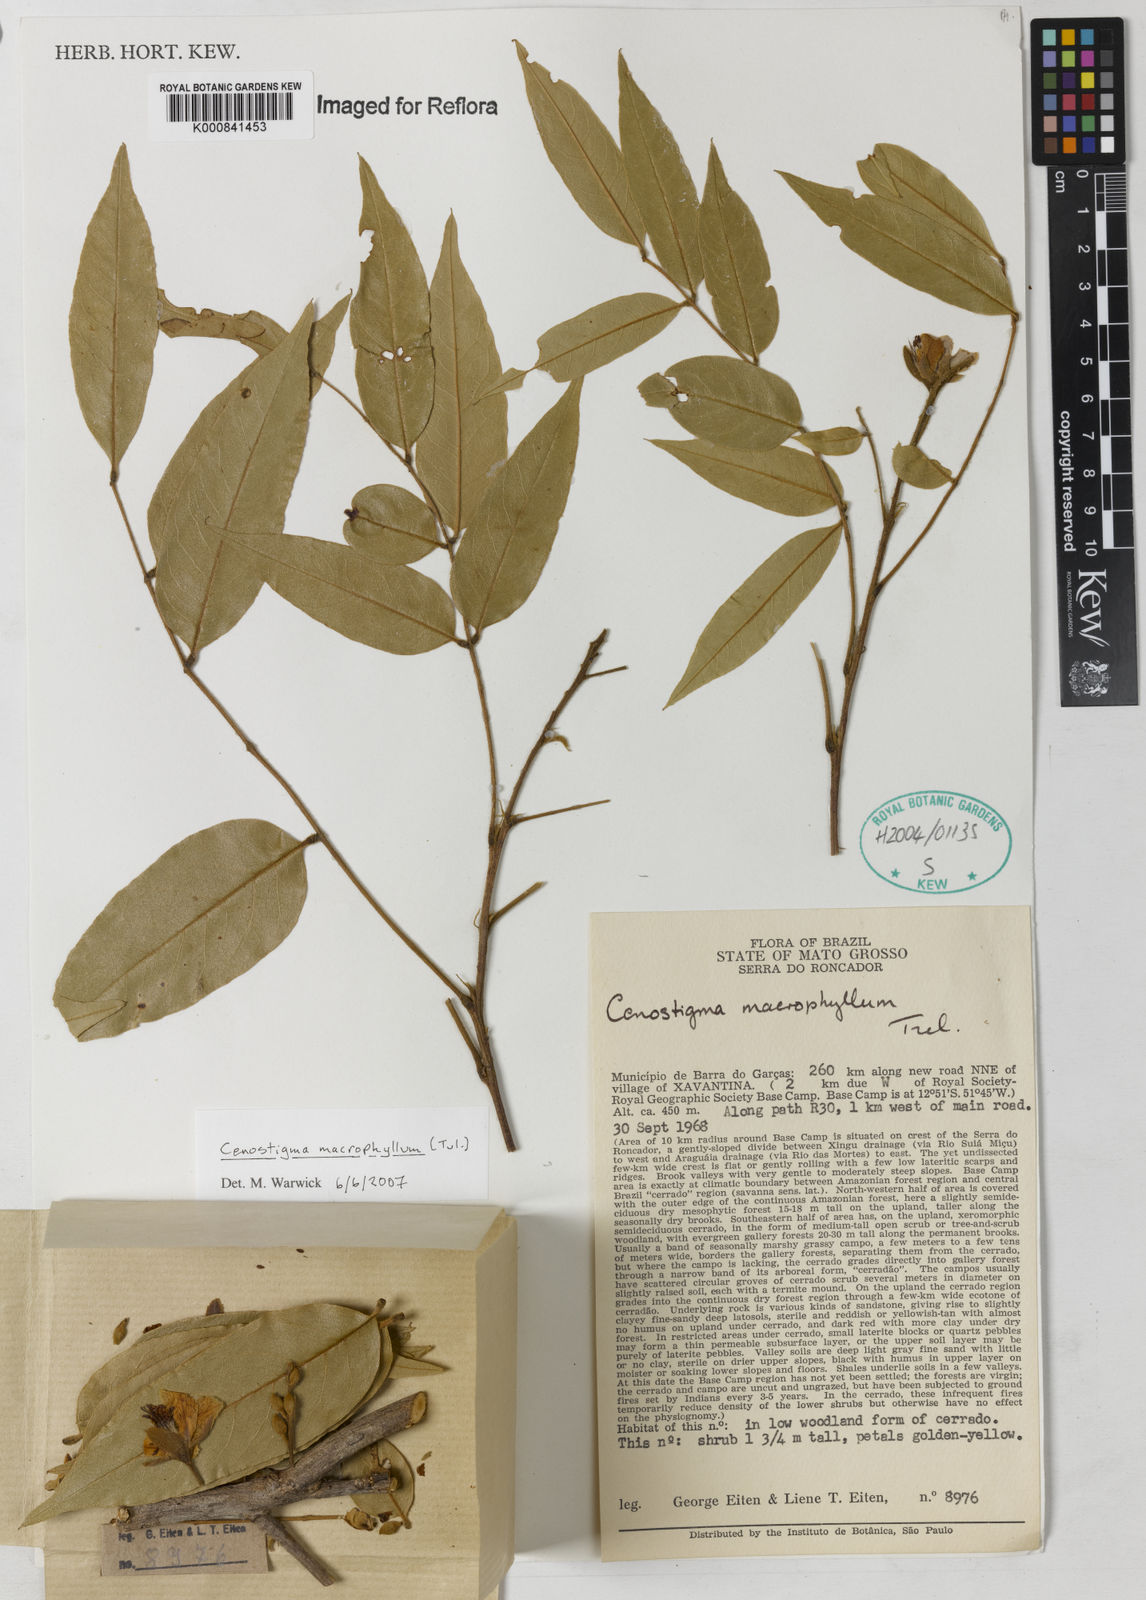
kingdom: Plantae
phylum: Tracheophyta
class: Magnoliopsida
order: Fabales
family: Fabaceae
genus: Cenostigma
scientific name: Cenostigma macrophyllum
